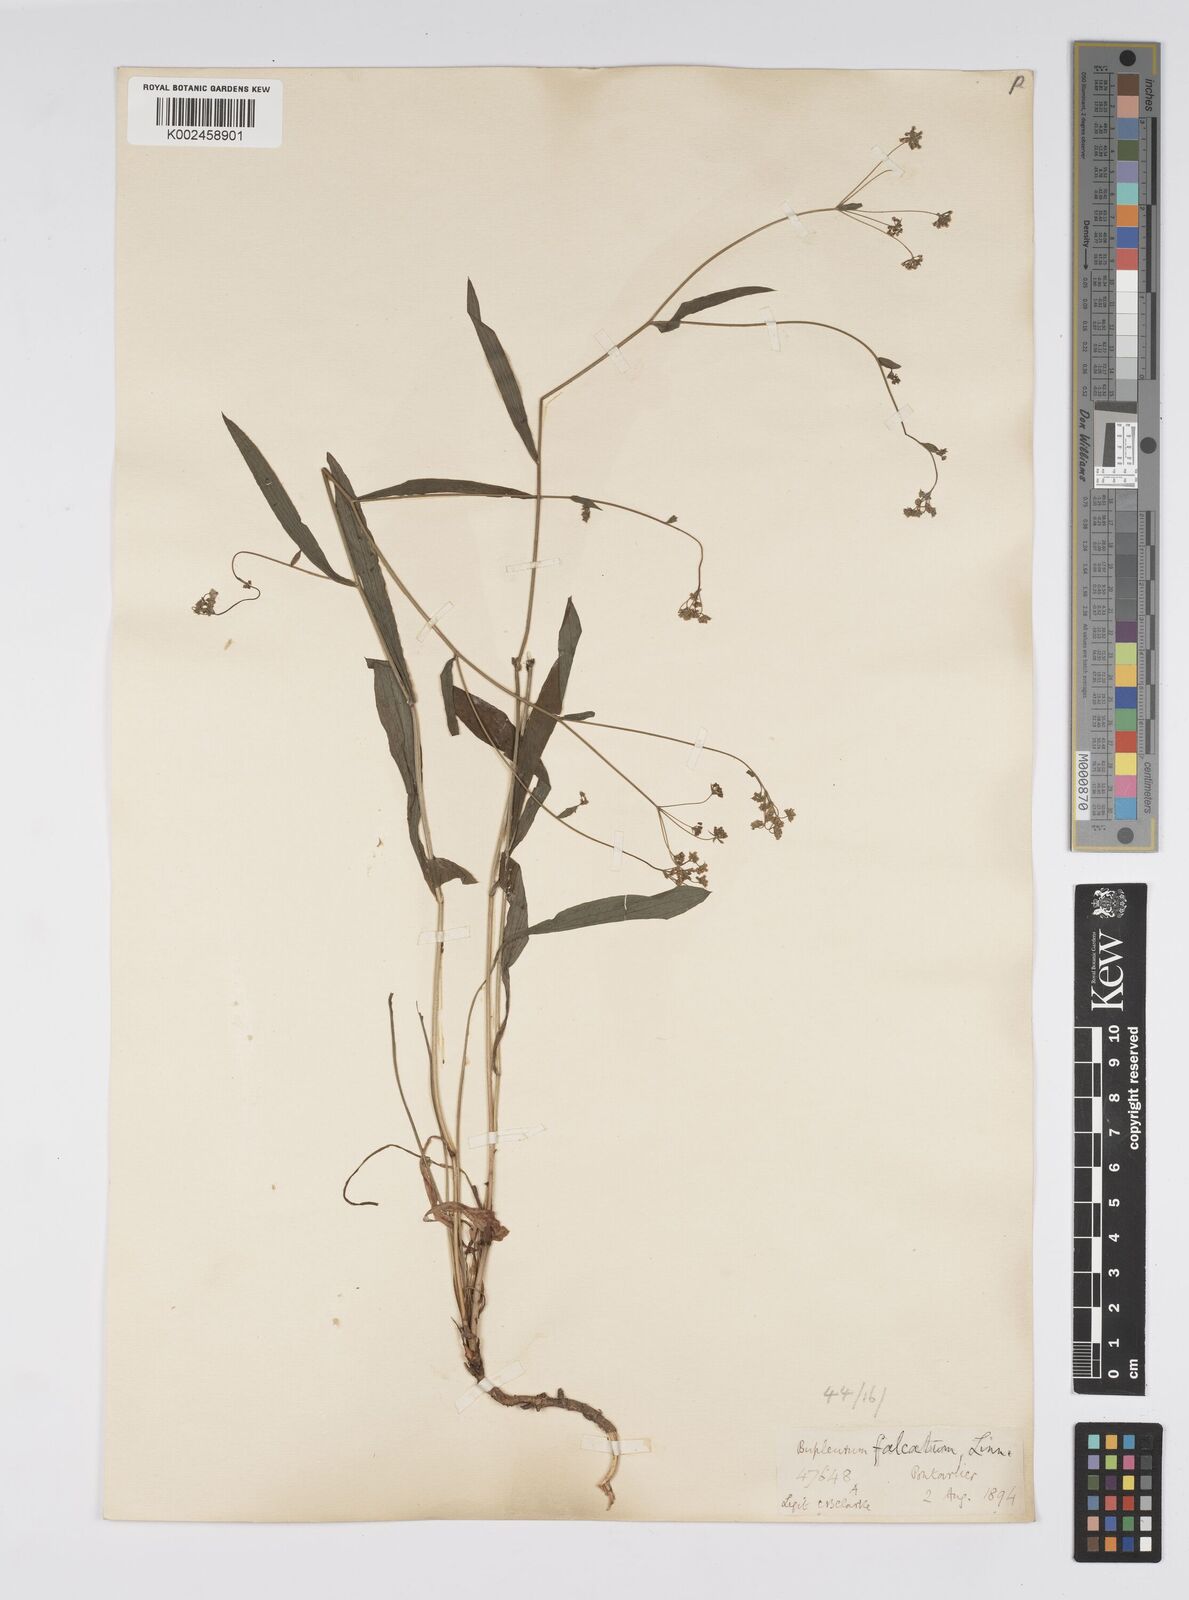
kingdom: Plantae
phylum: Tracheophyta
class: Magnoliopsida
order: Apiales
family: Apiaceae
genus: Bupleurum
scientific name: Bupleurum falcatum
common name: Sickle-leaved hare's-ear
